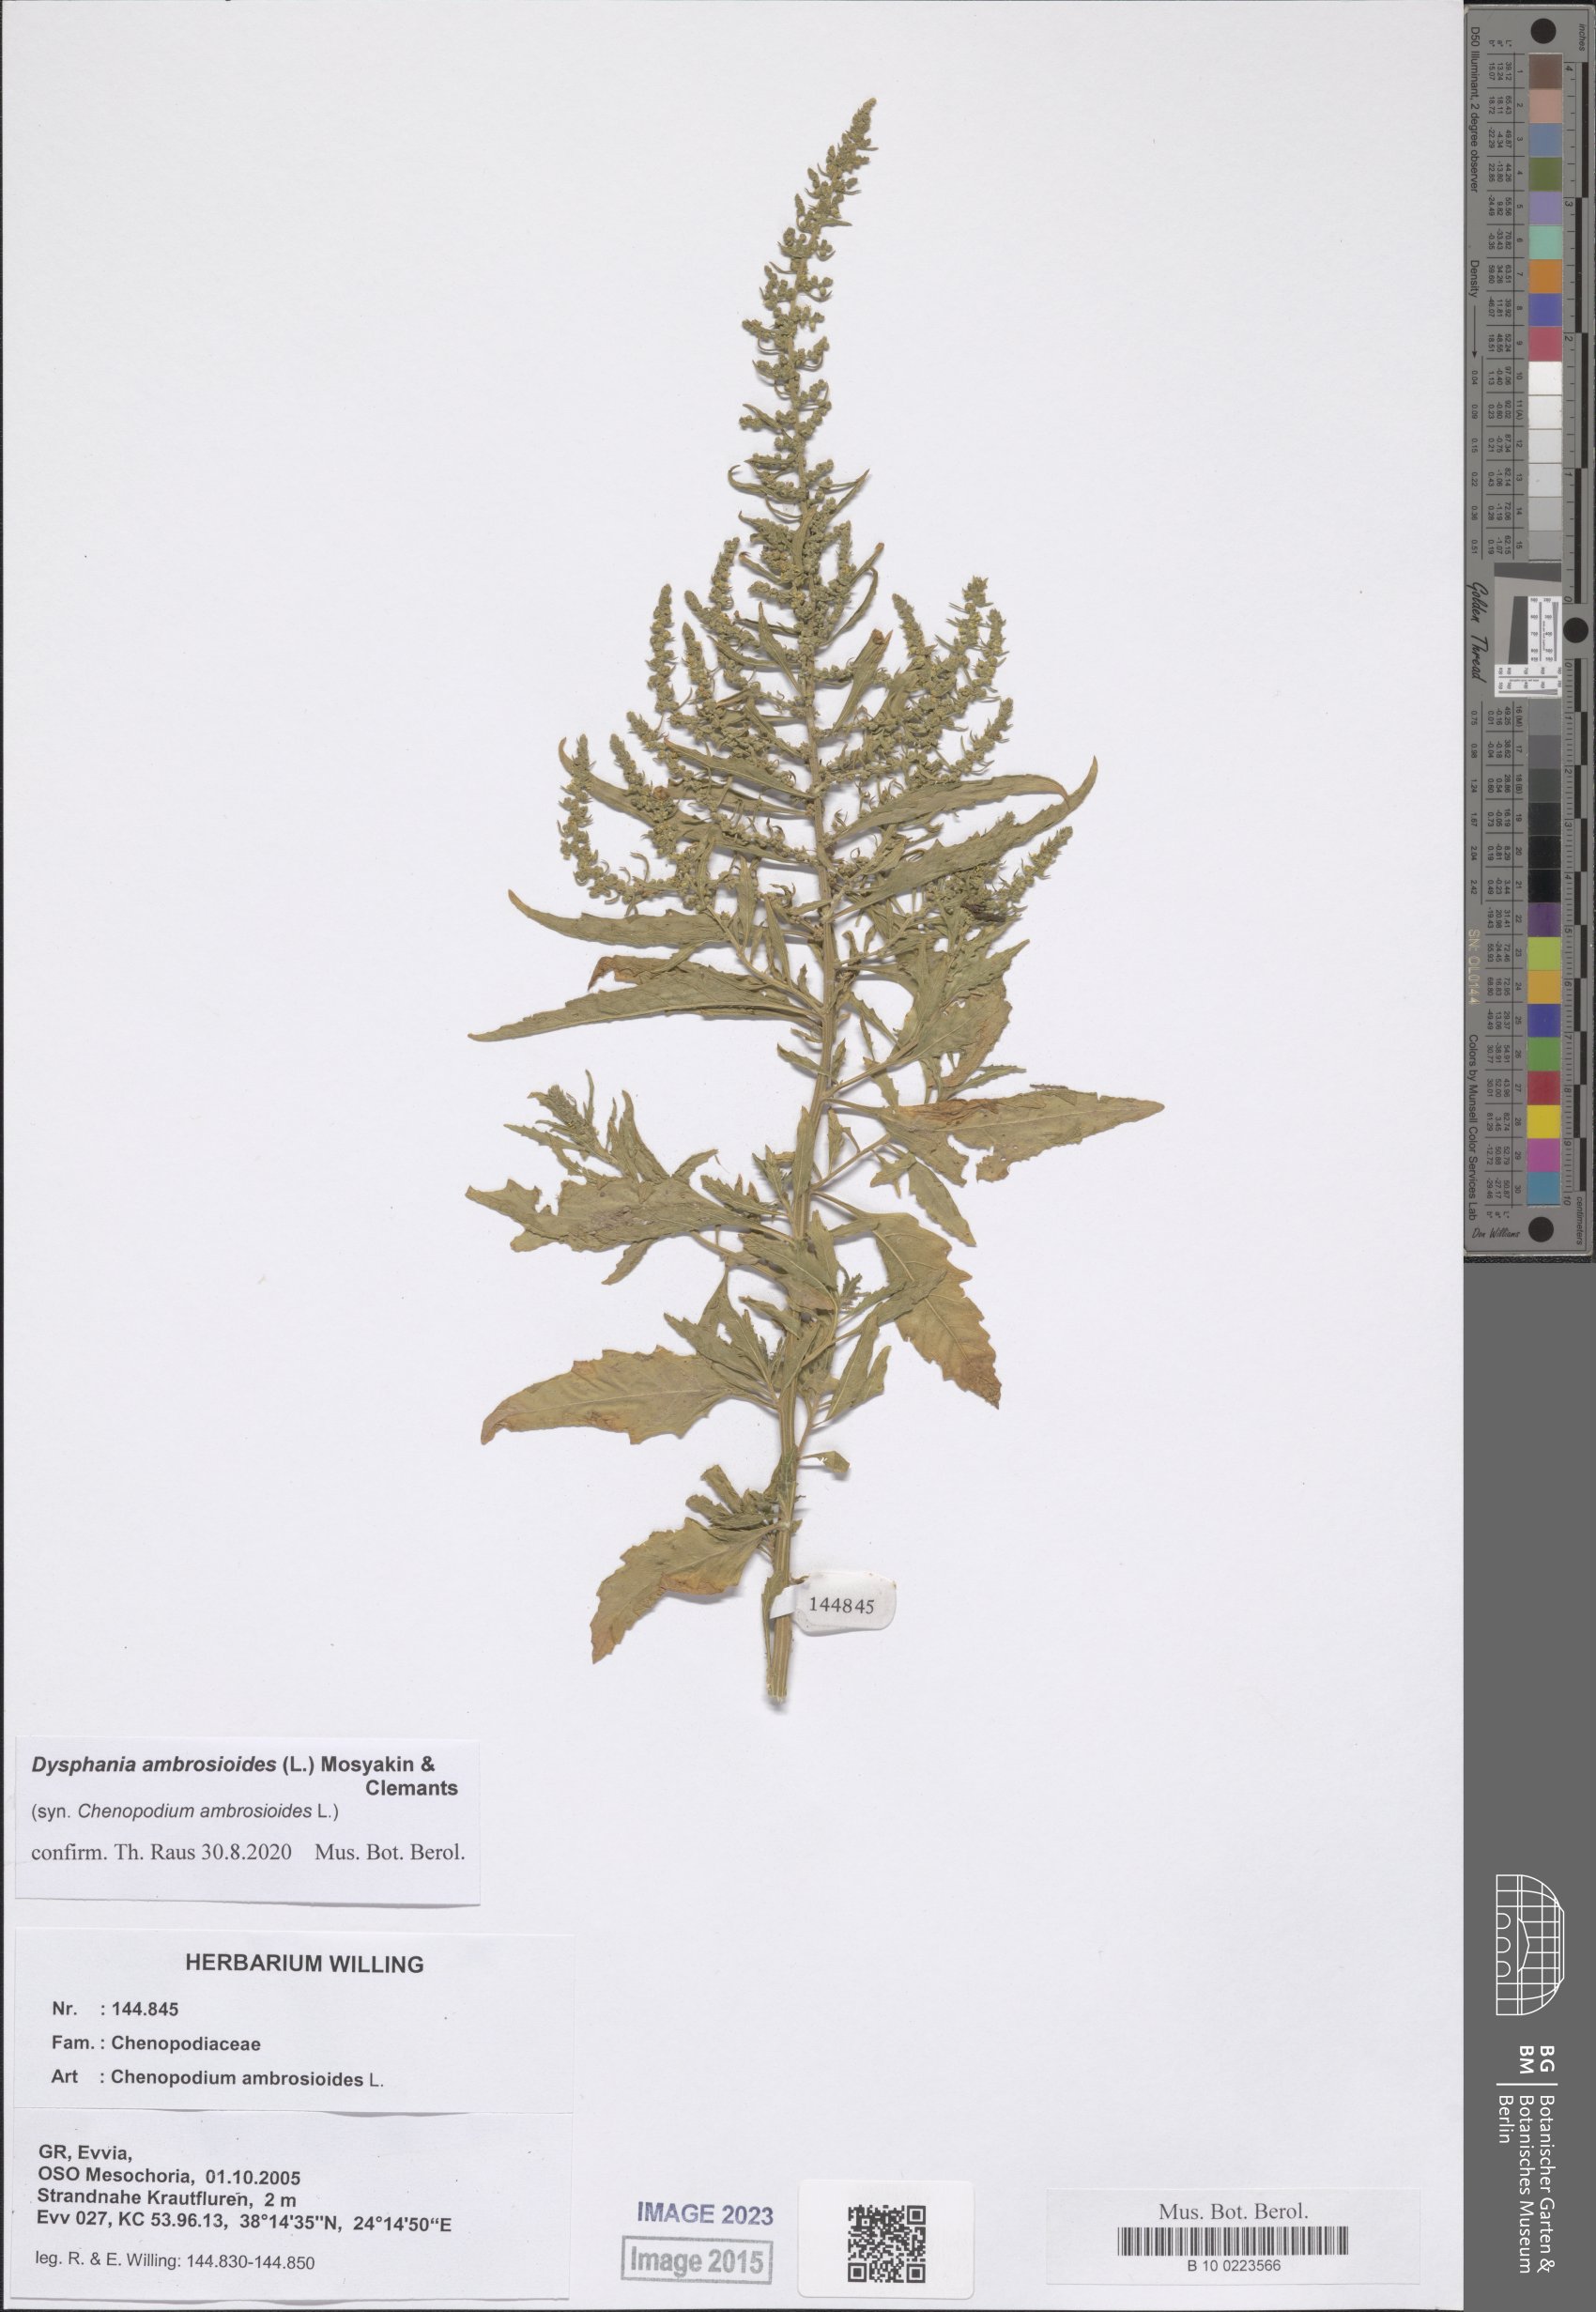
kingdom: Plantae
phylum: Tracheophyta
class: Magnoliopsida
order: Caryophyllales
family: Amaranthaceae
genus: Dysphania
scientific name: Dysphania ambrosioides
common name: Wormseed
